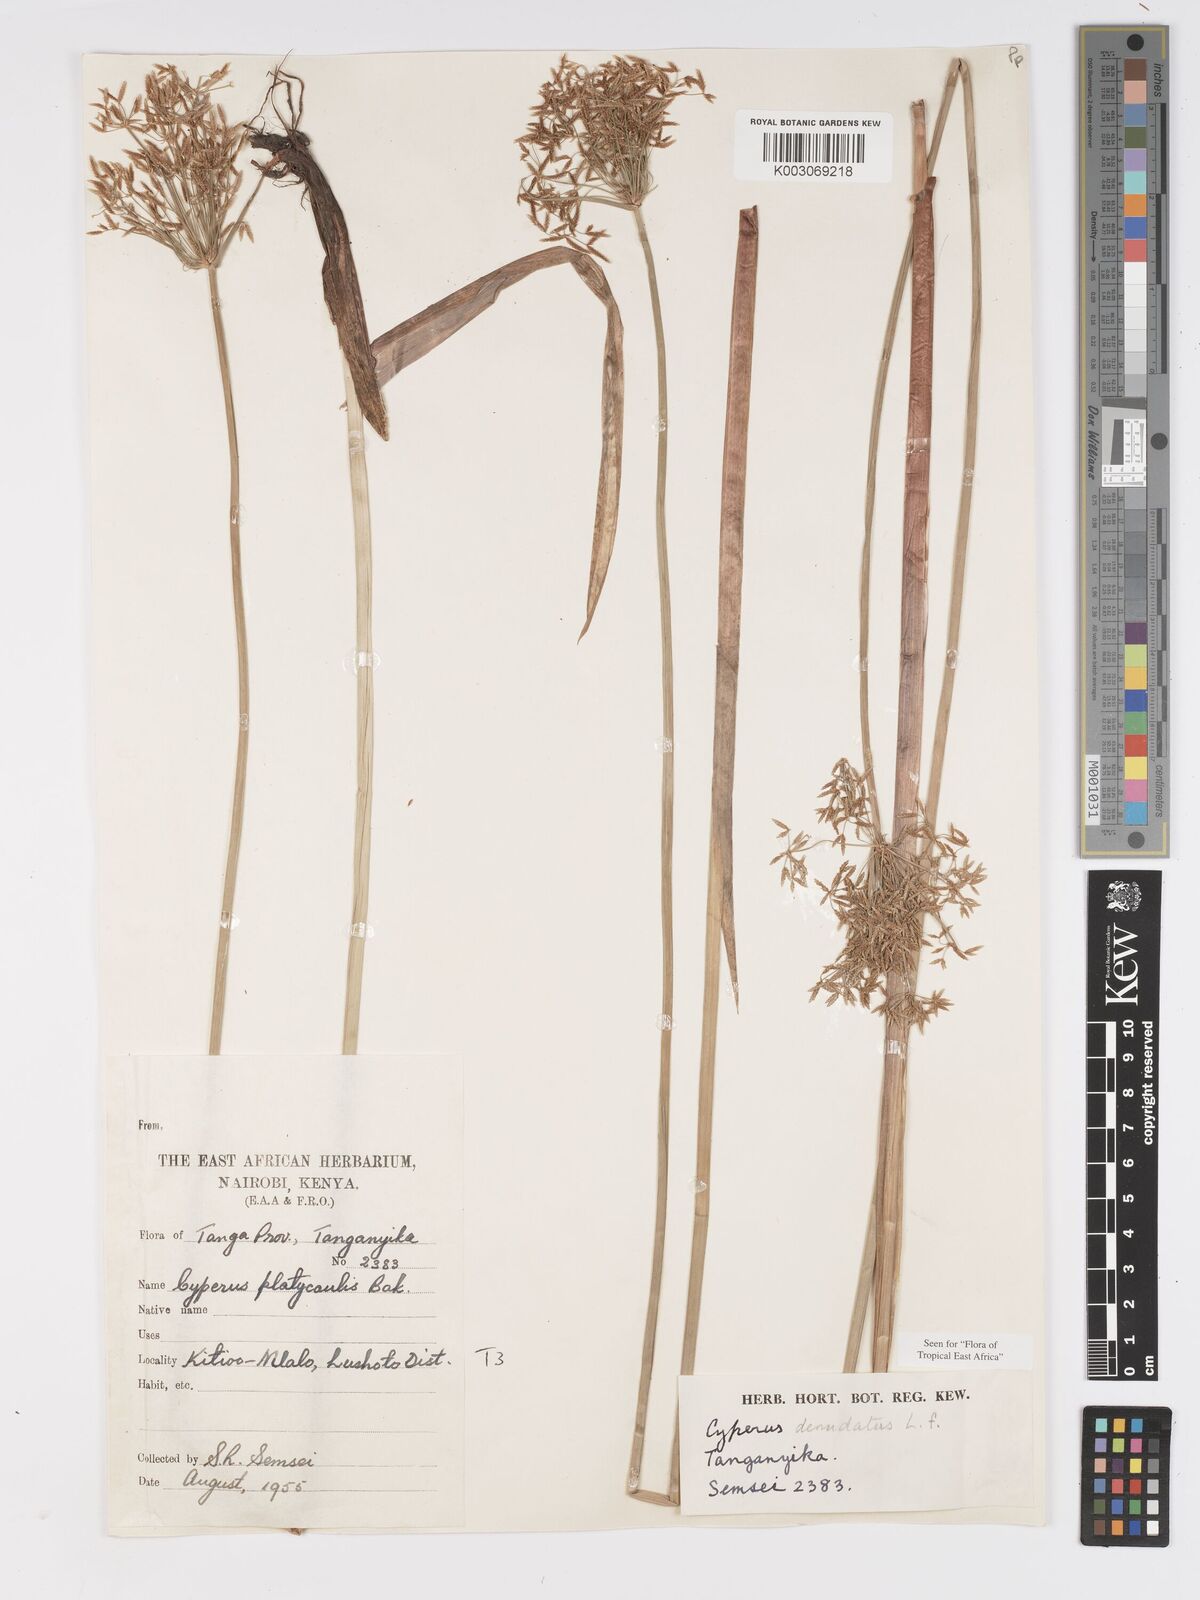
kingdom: Plantae
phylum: Tracheophyta
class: Liliopsida
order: Poales
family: Cyperaceae
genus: Cyperus
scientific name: Cyperus denudatus
